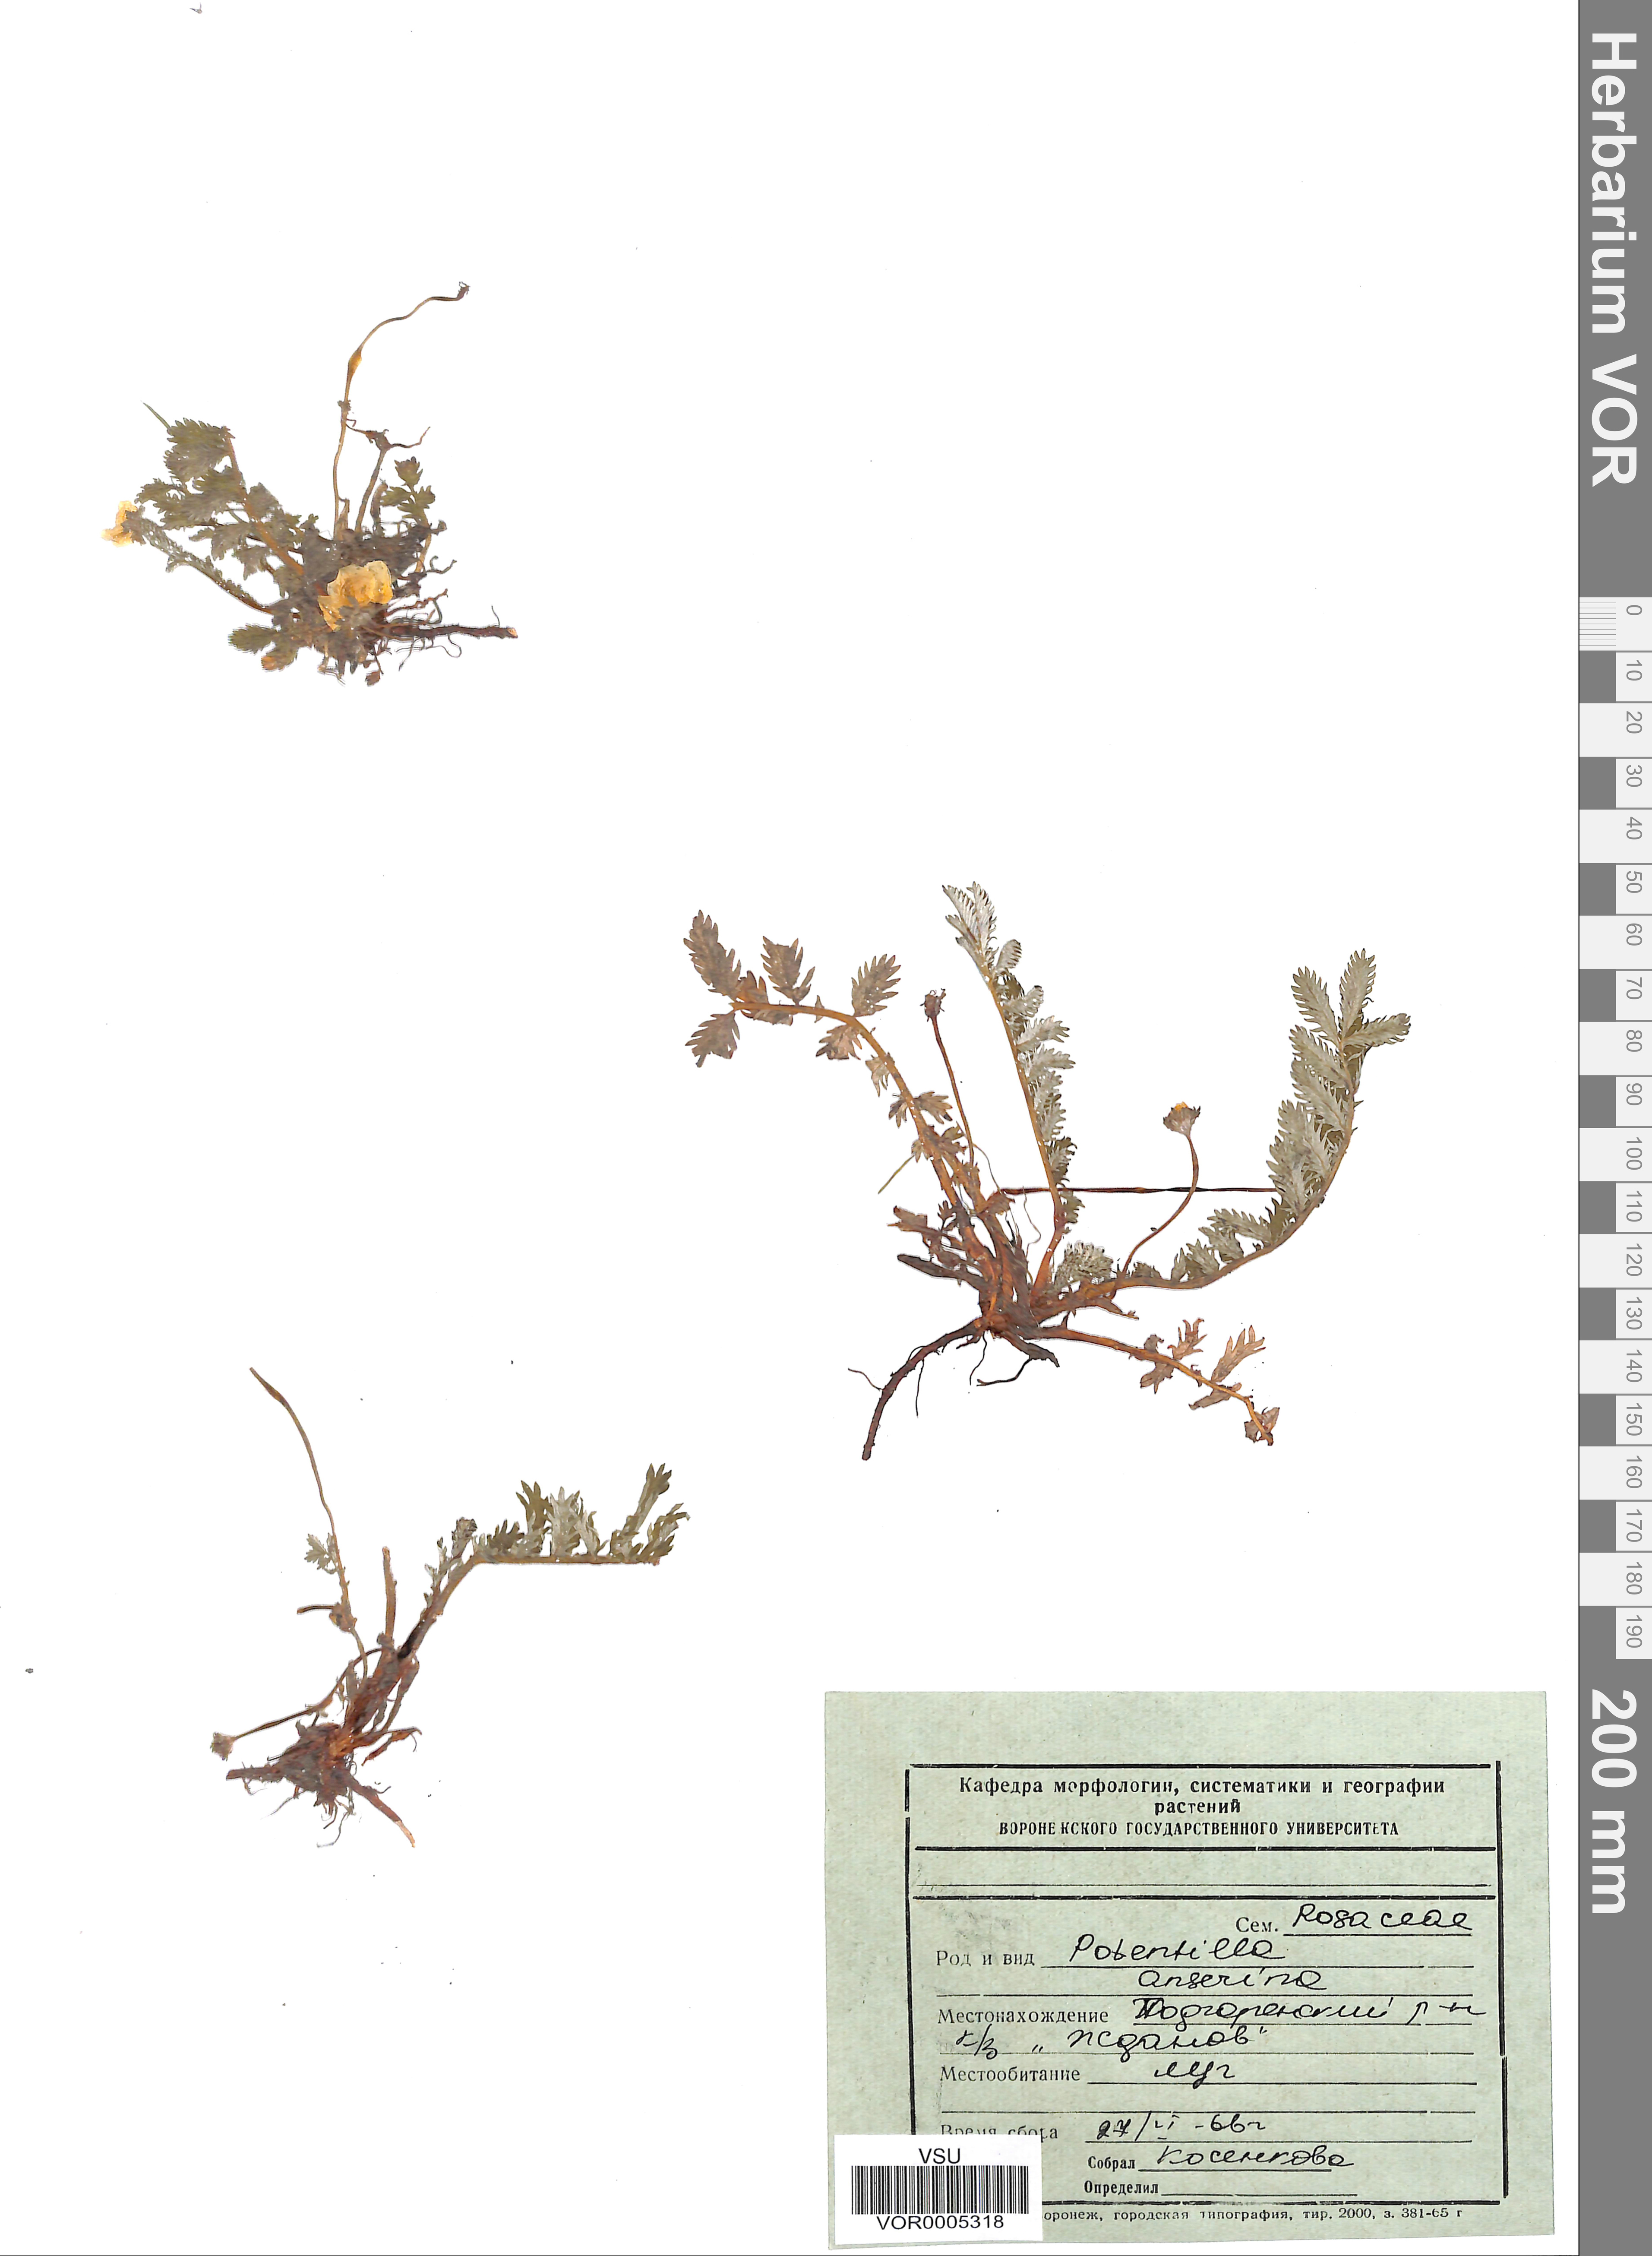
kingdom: Plantae
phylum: Tracheophyta
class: Magnoliopsida
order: Rosales
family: Rosaceae
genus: Argentina
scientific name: Argentina anserina
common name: Common silverweed
